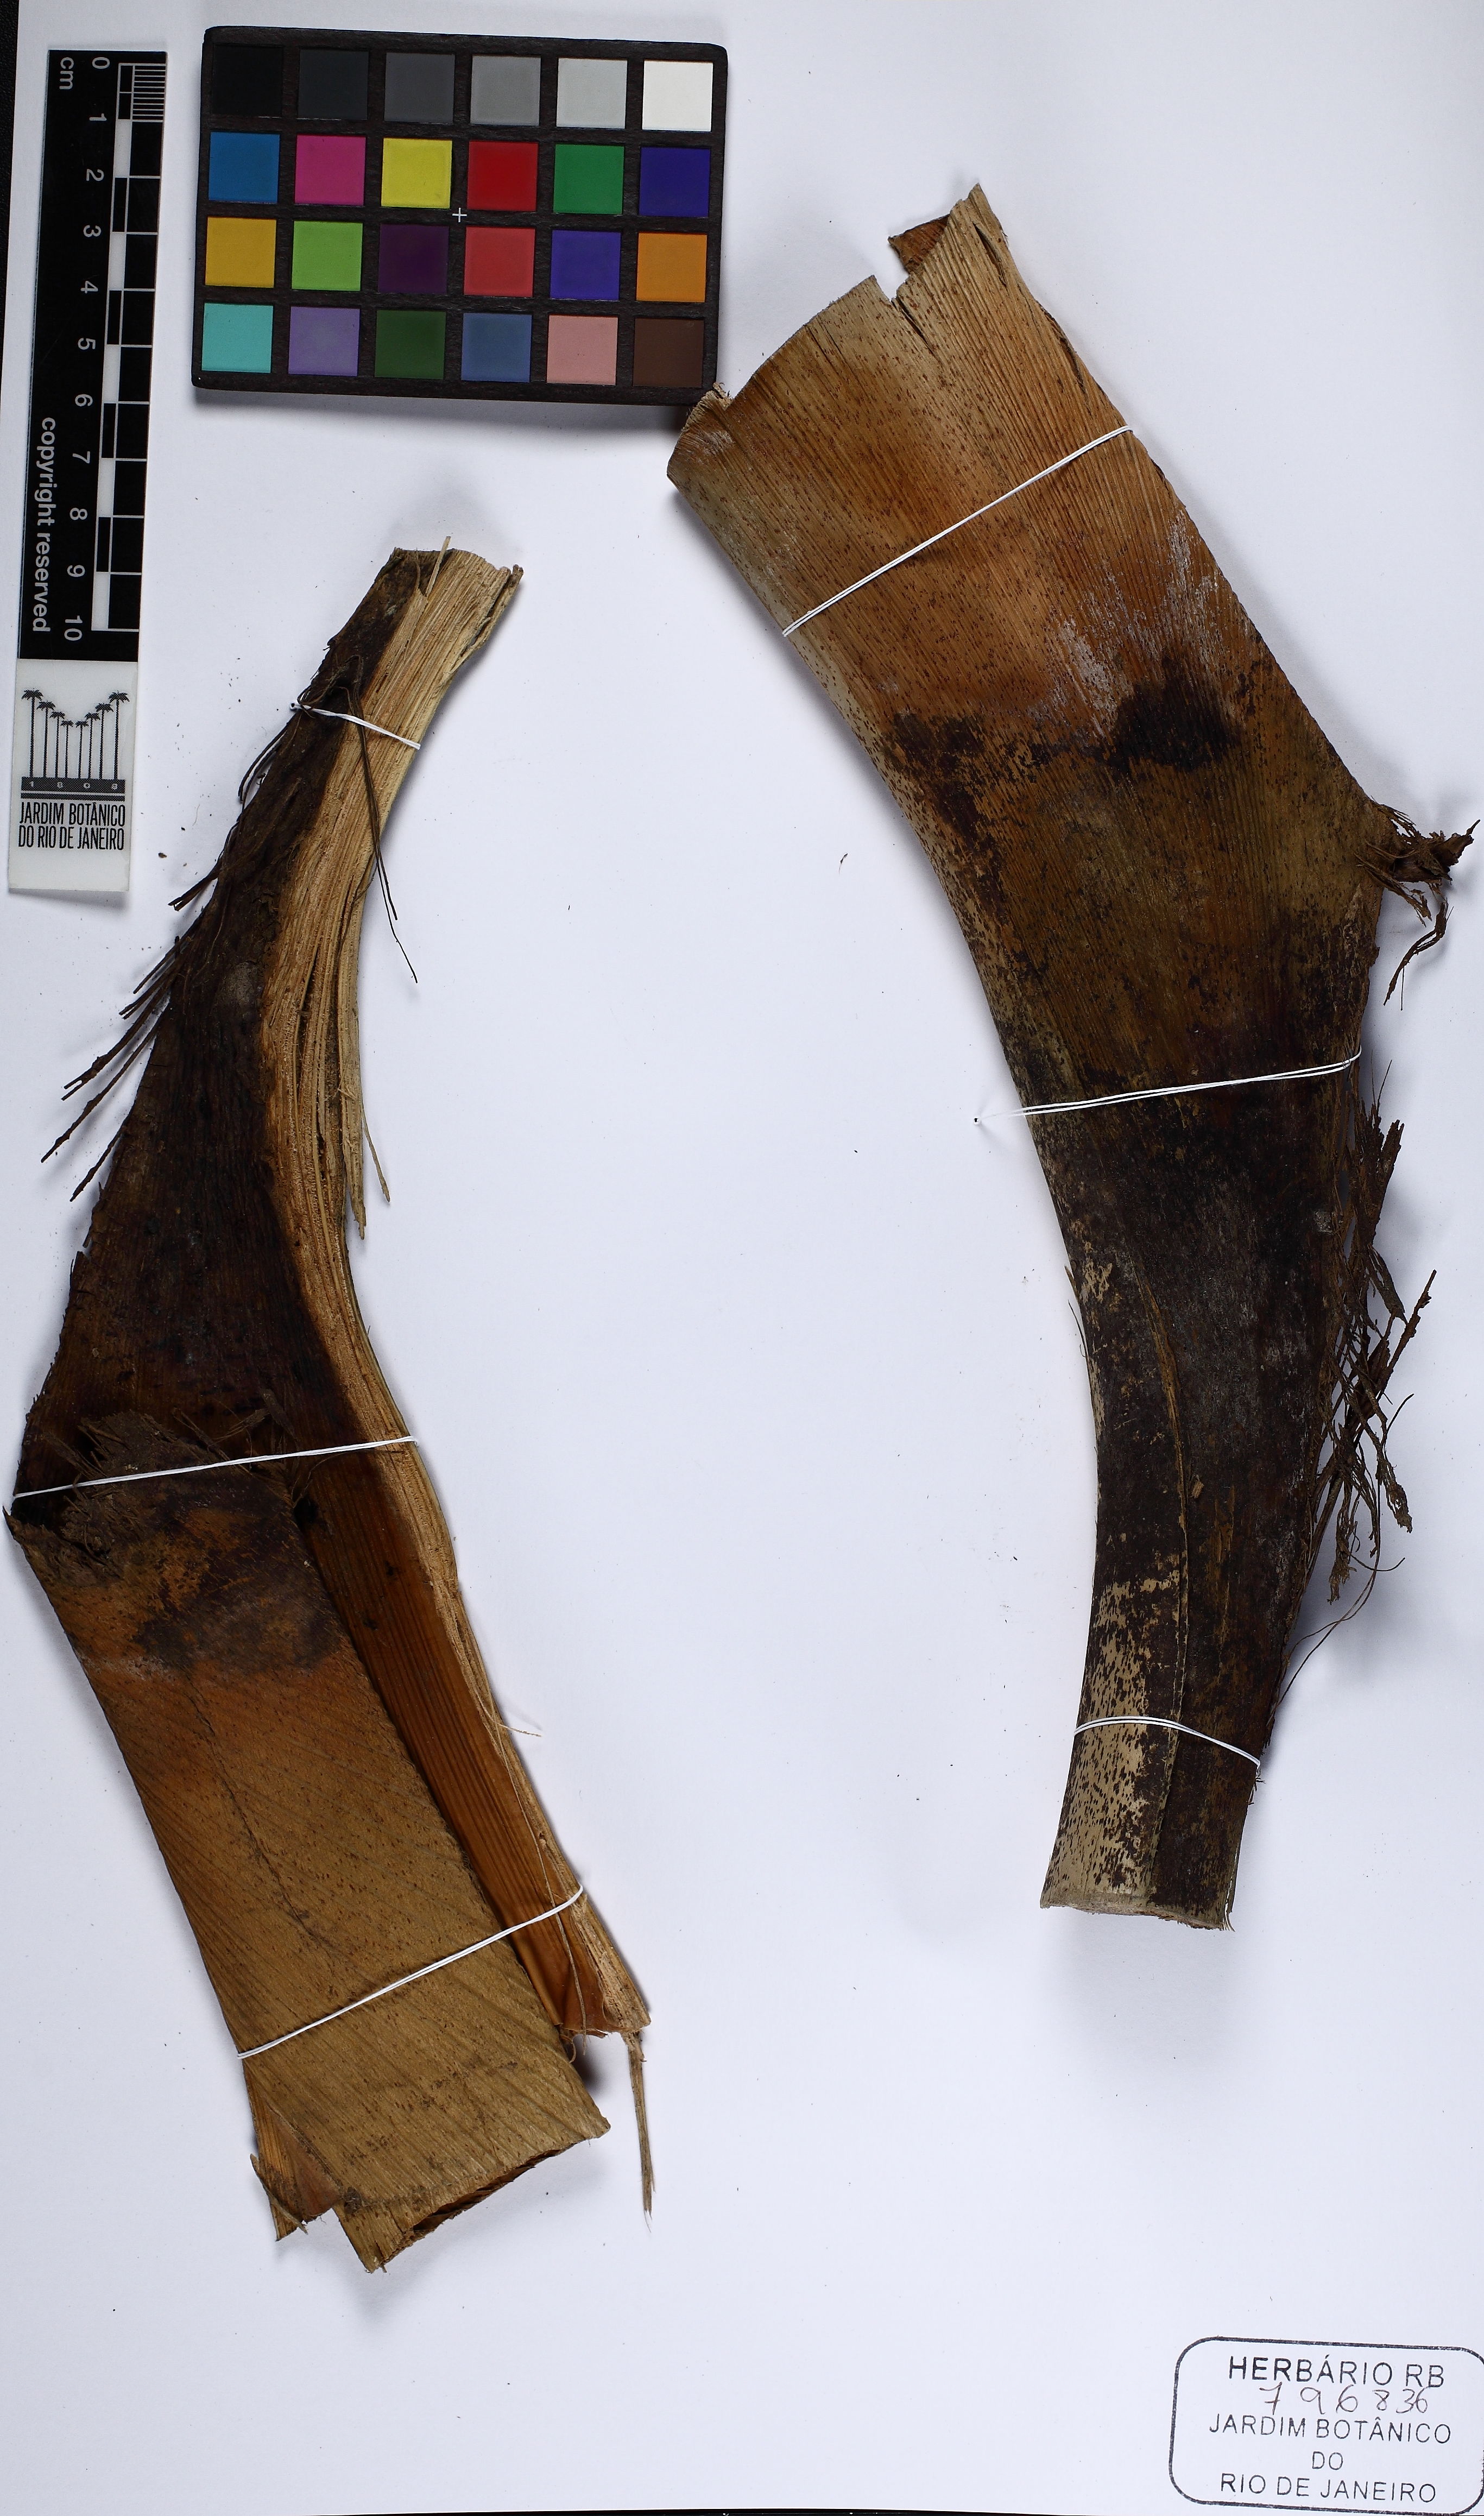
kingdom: Plantae
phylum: Tracheophyta
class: Liliopsida
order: Arecales
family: Arecaceae
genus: Euterpe
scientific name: Euterpe precatoria
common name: Mountain-cabbage
